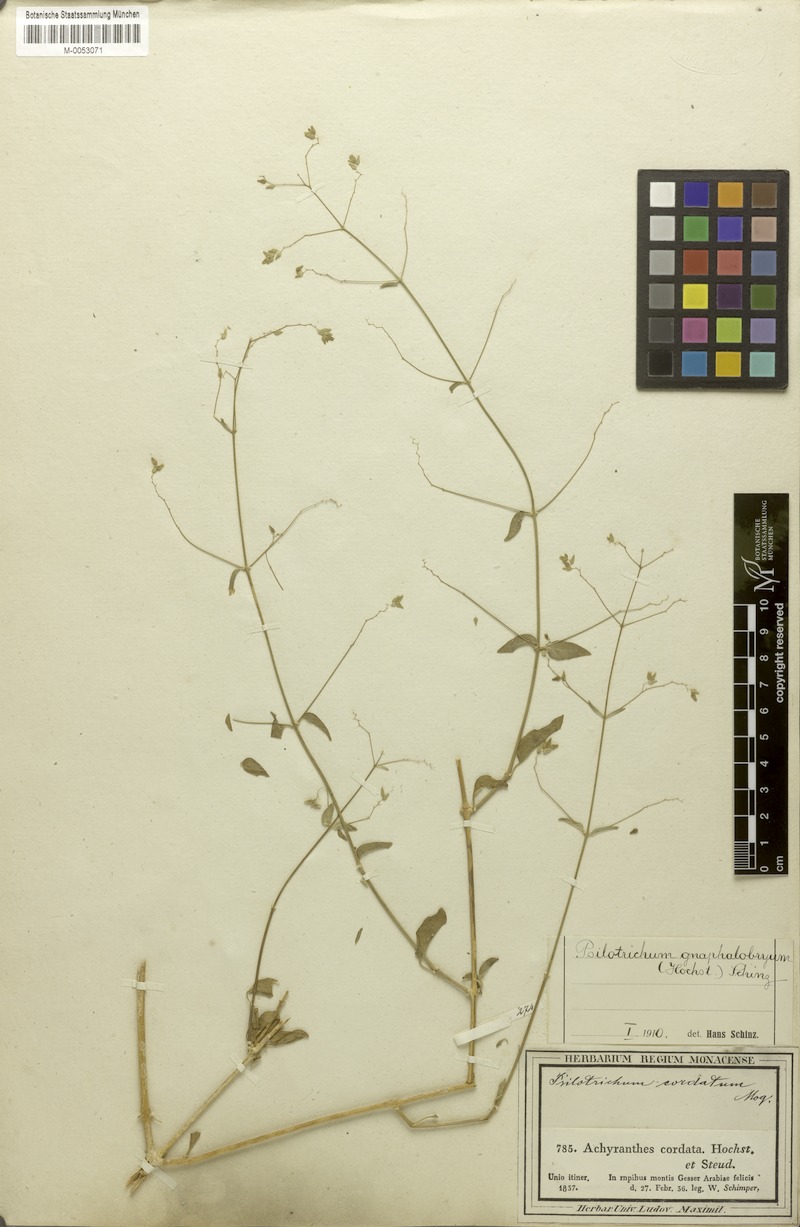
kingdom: Plantae
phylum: Tracheophyta
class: Magnoliopsida
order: Caryophyllales
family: Amaranthaceae
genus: Psilotrichum
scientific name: Psilotrichum gnaphalobryum
